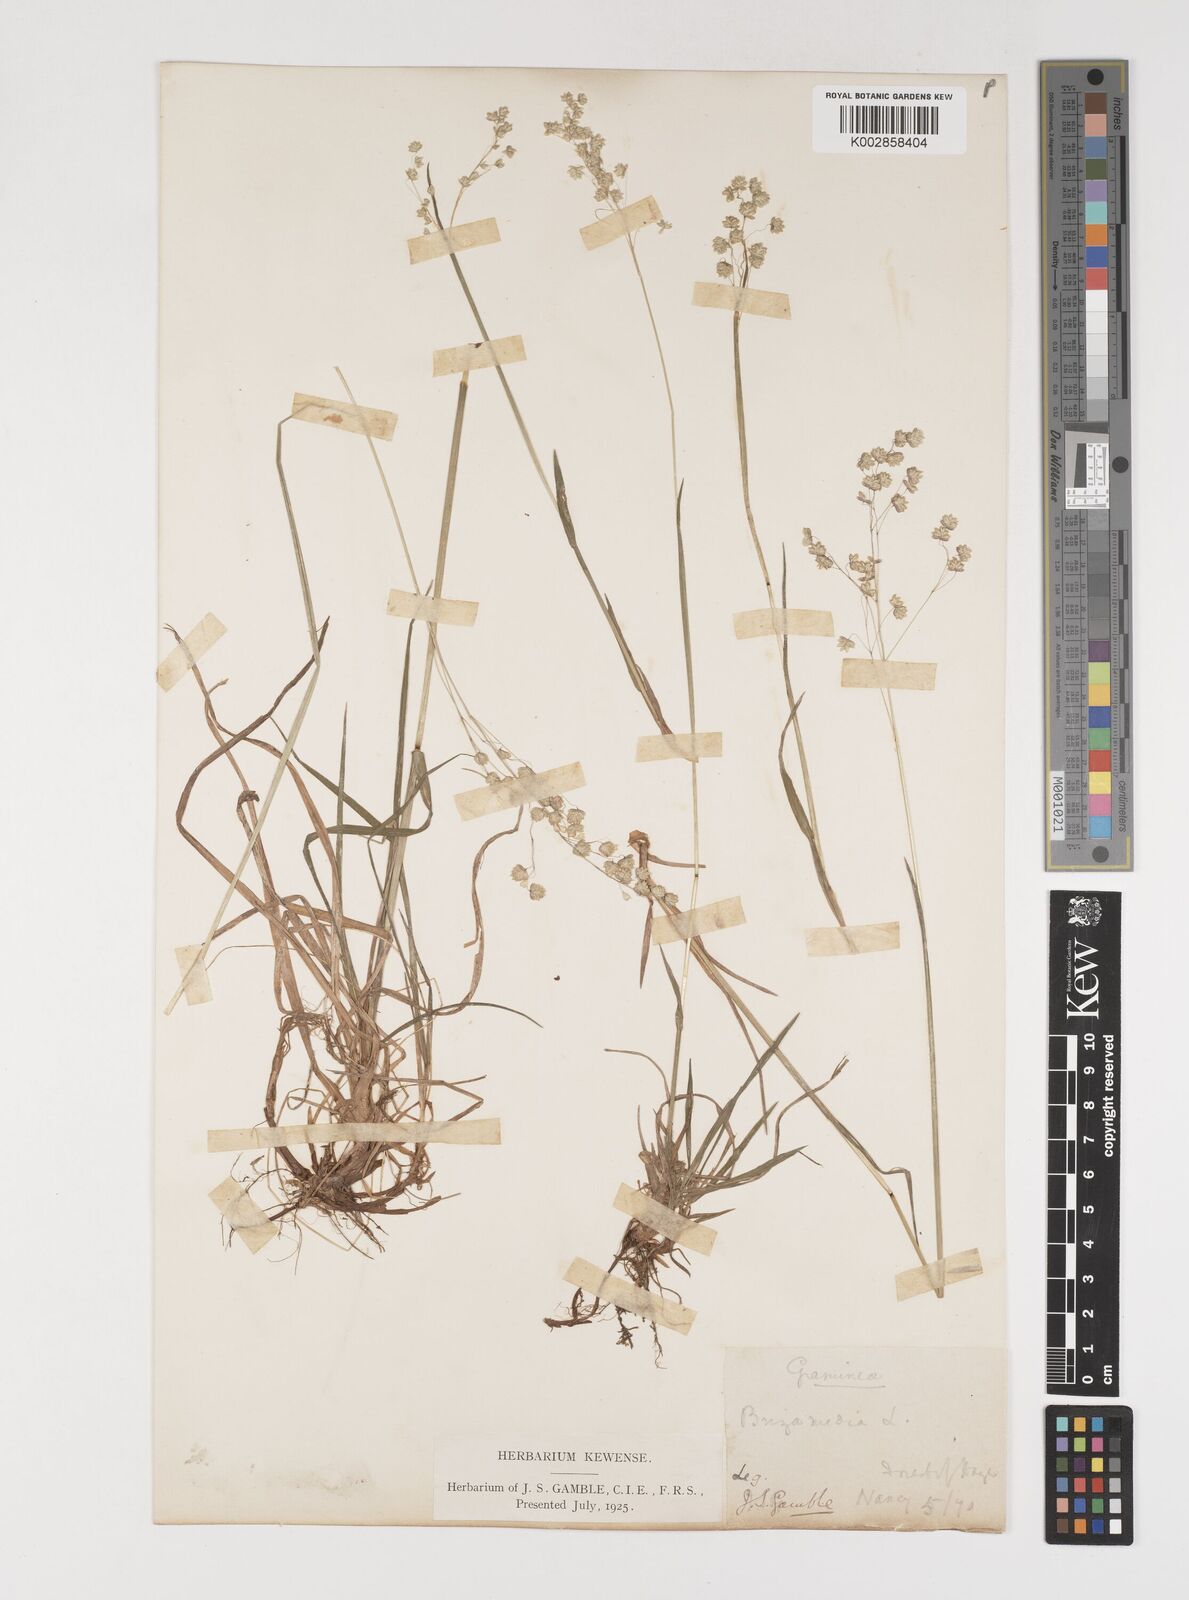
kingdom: Plantae
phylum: Tracheophyta
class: Liliopsida
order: Poales
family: Poaceae
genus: Briza
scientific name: Briza media
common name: Quaking grass
